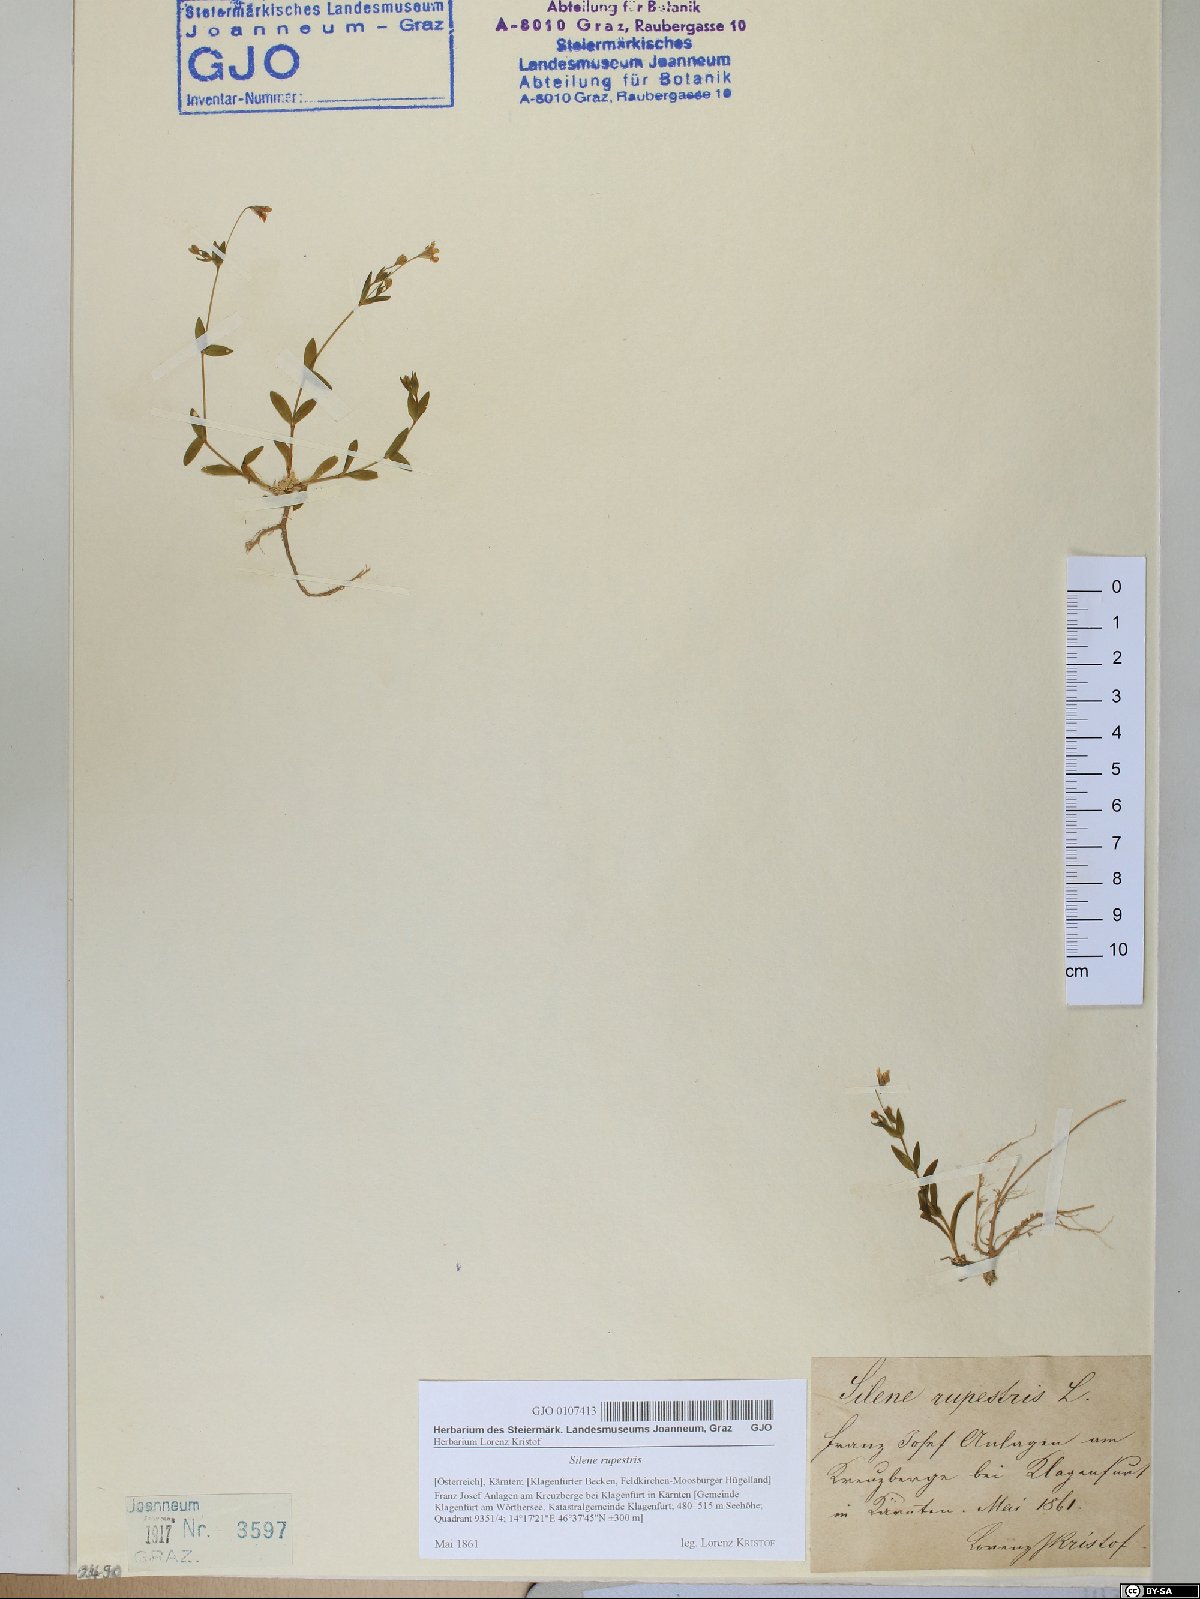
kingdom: Plantae
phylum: Tracheophyta
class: Magnoliopsida
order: Caryophyllales
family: Caryophyllaceae
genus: Atocion
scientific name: Atocion rupestre
